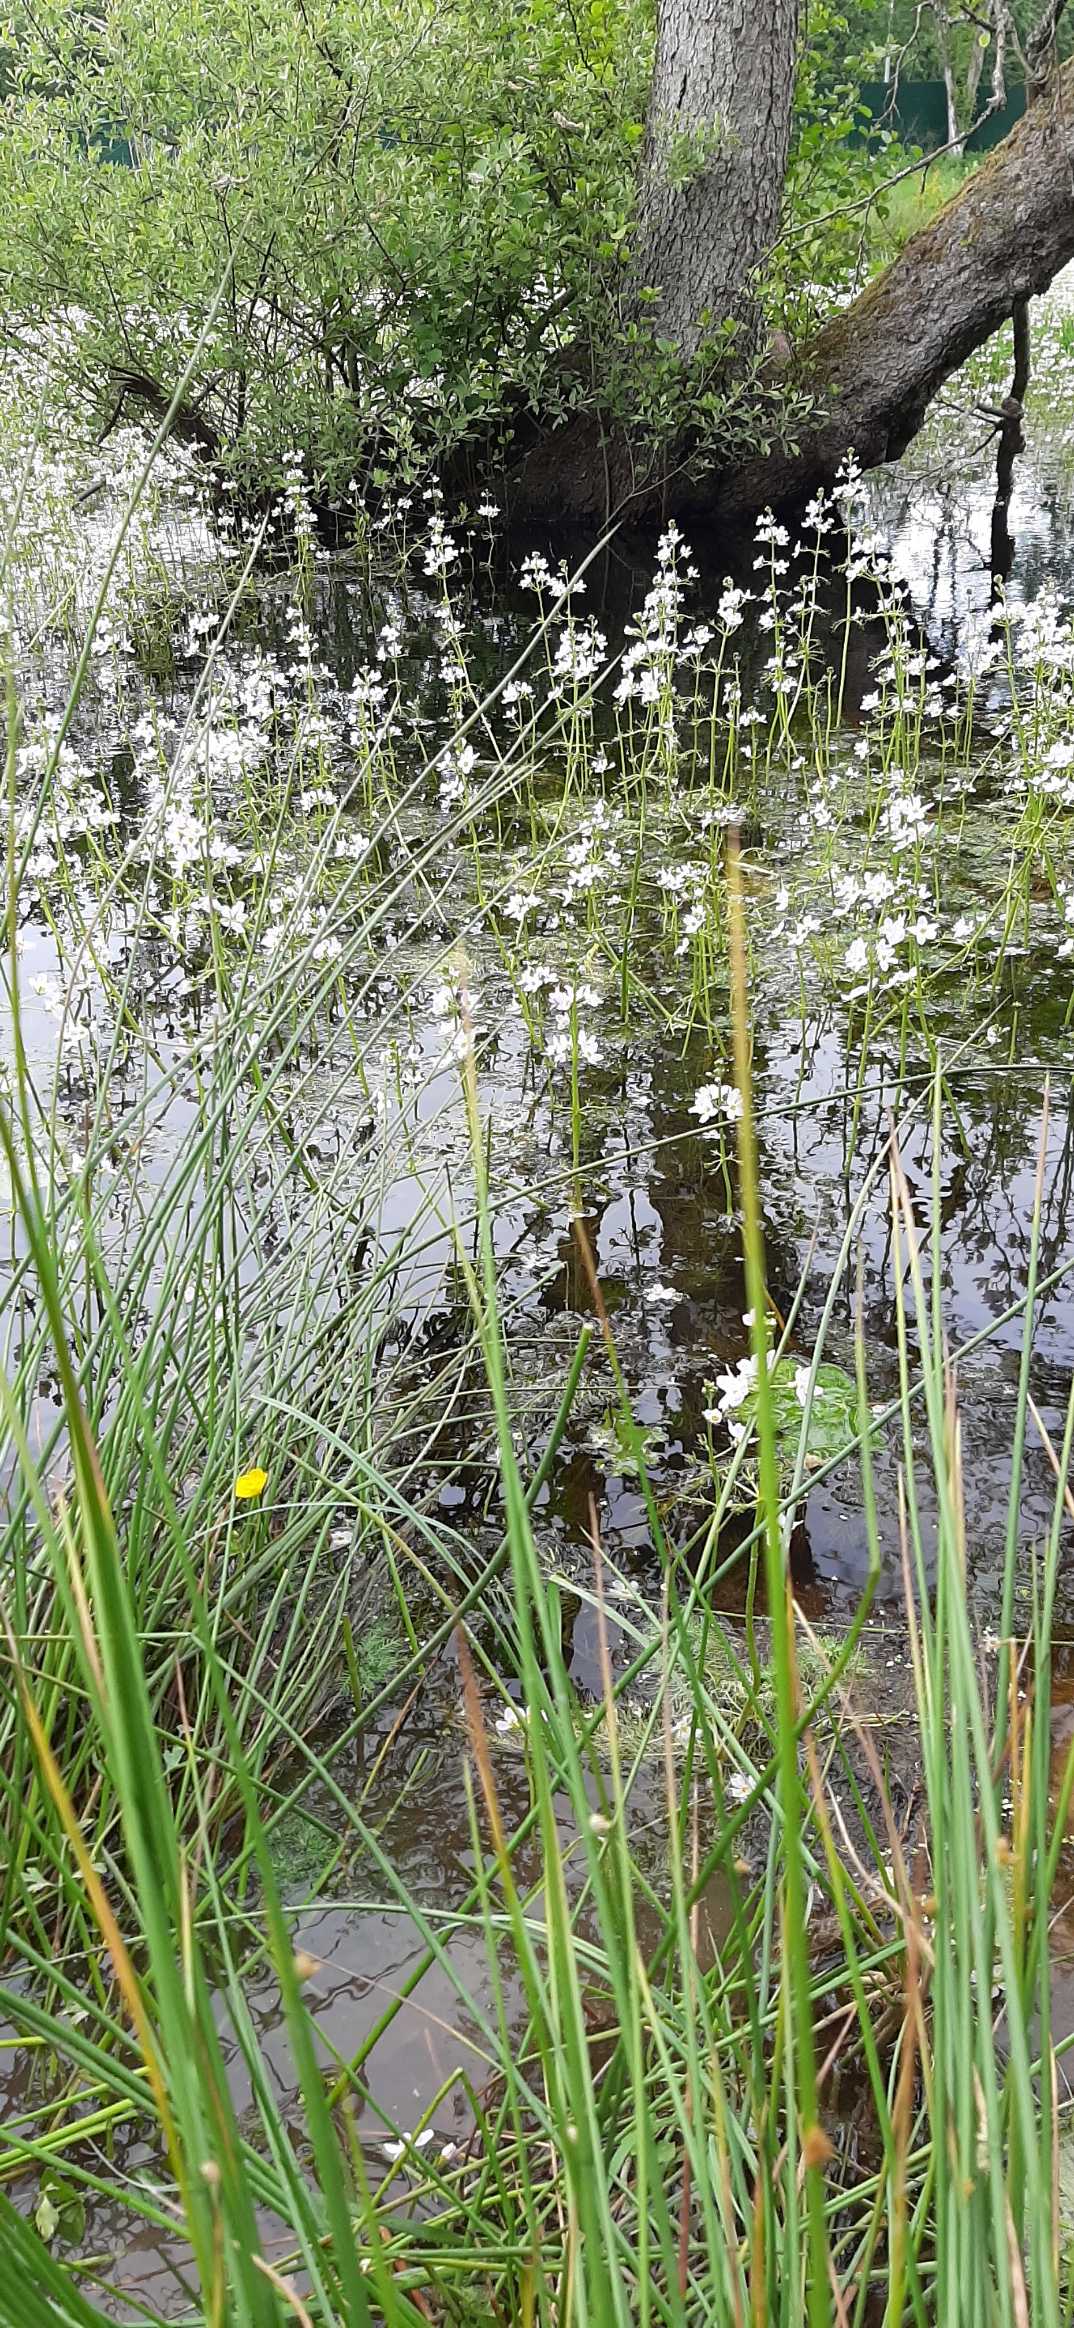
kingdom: Plantae
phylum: Tracheophyta
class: Magnoliopsida
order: Ericales
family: Primulaceae
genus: Hottonia
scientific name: Hottonia palustris
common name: Vandrøllike
